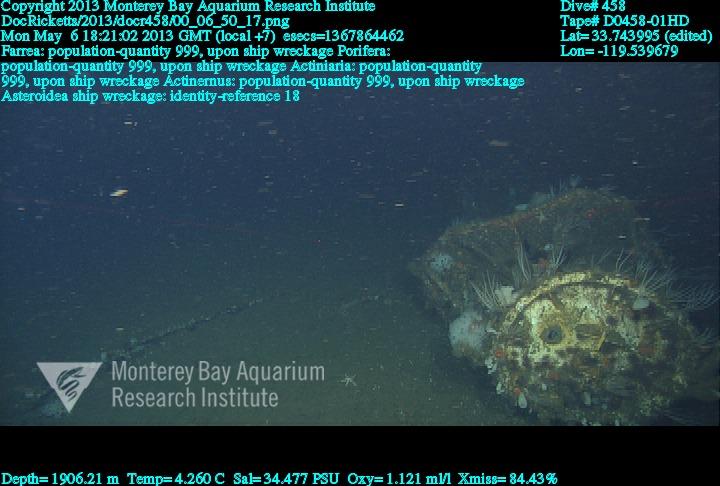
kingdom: Animalia
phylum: Porifera
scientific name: Porifera
